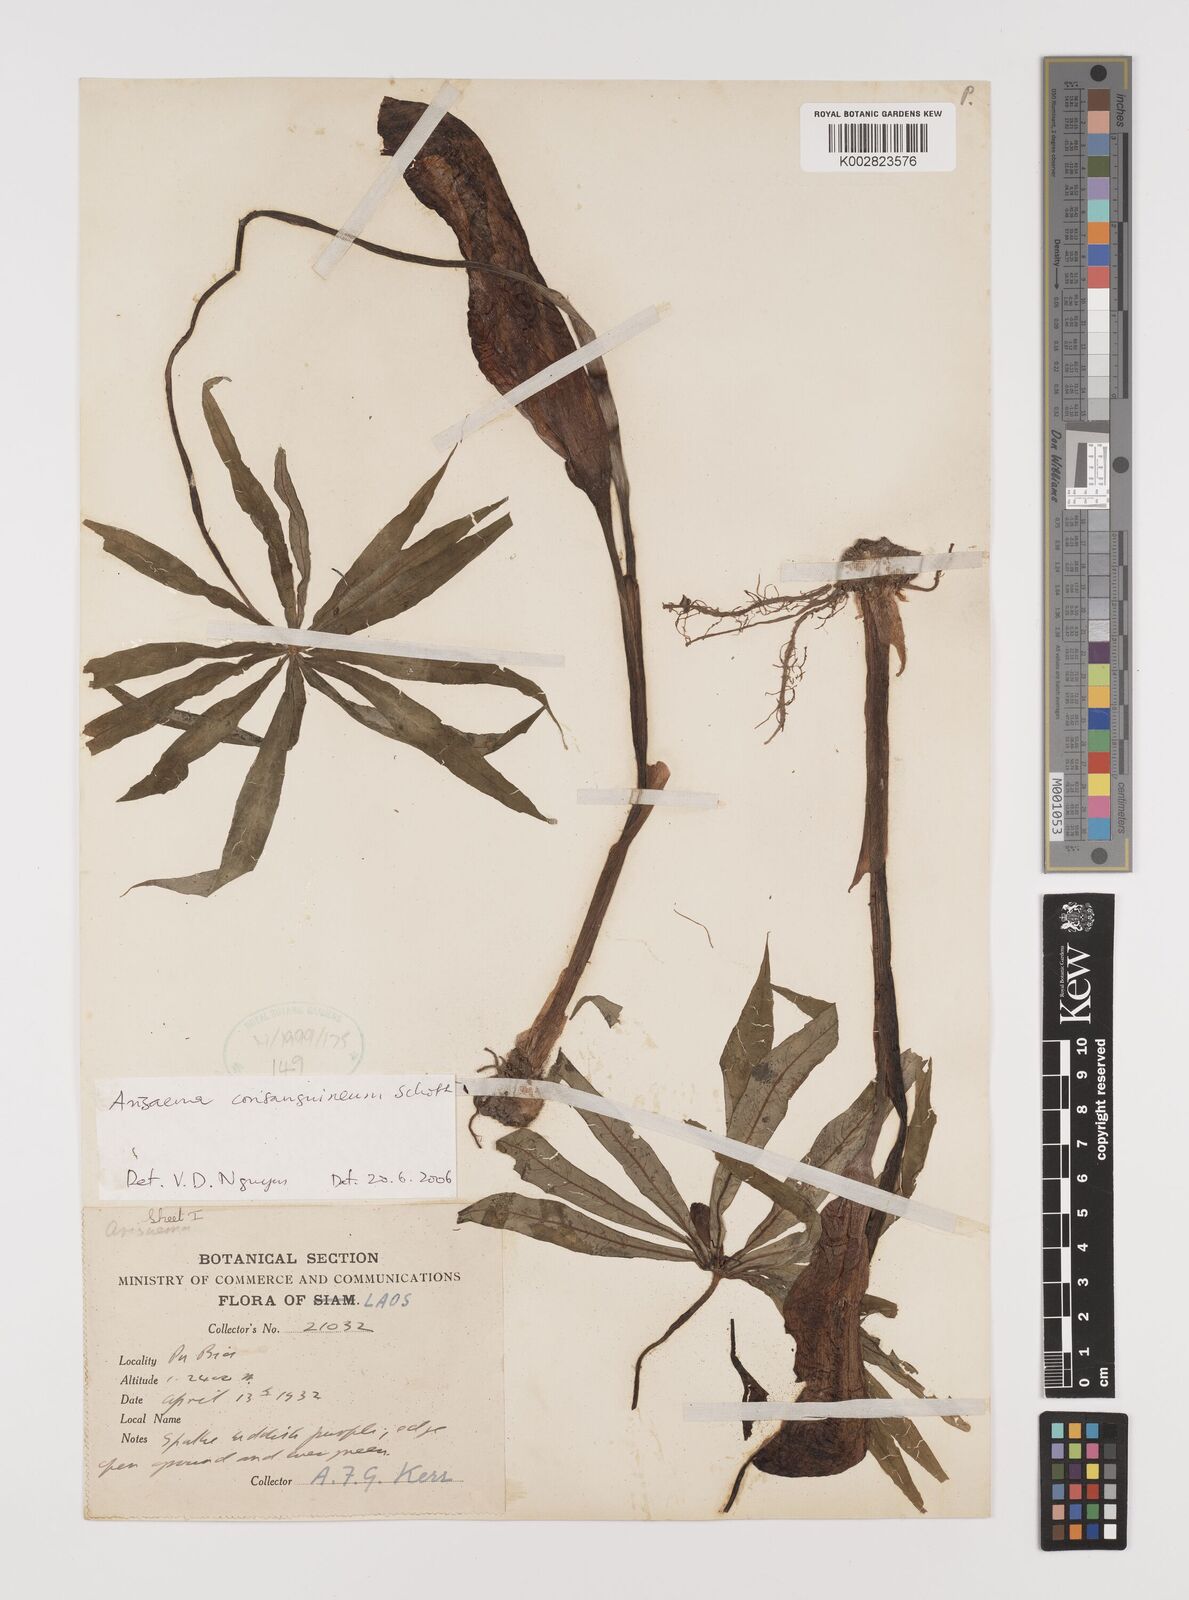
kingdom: Plantae
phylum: Tracheophyta
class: Liliopsida
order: Alismatales
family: Araceae
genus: Arisaema
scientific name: Arisaema consanguineum
